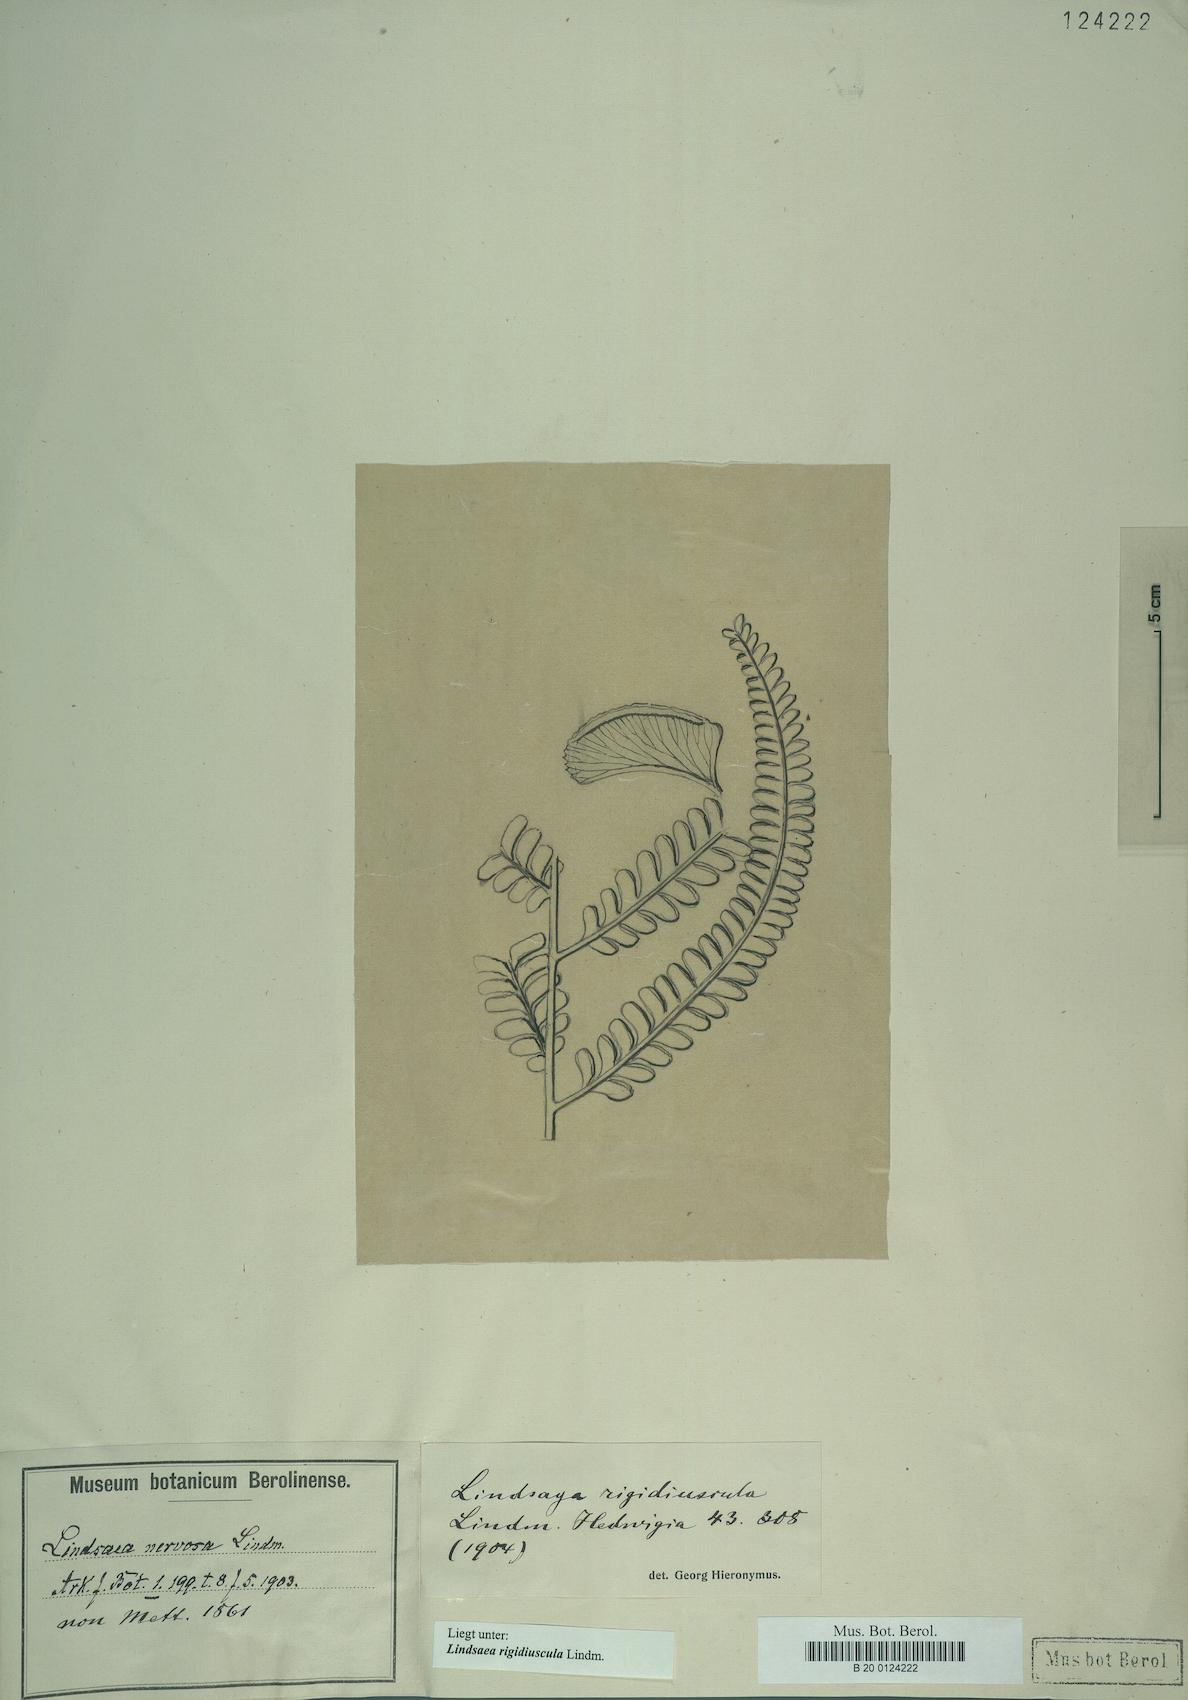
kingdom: Plantae
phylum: Tracheophyta
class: Polypodiopsida
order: Polypodiales
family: Lindsaeaceae
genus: Lindsaea
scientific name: Lindsaea rigidiuscula
